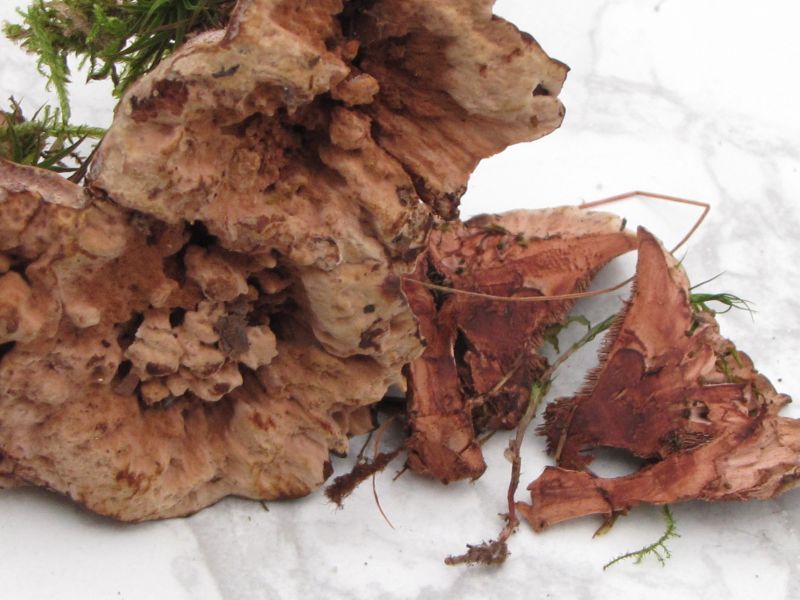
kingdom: Fungi
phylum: Basidiomycota
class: Agaricomycetes
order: Polyporales
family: Polyporaceae
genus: Trametes
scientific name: Trametes gibbosa
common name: puklet læderporesvamp
